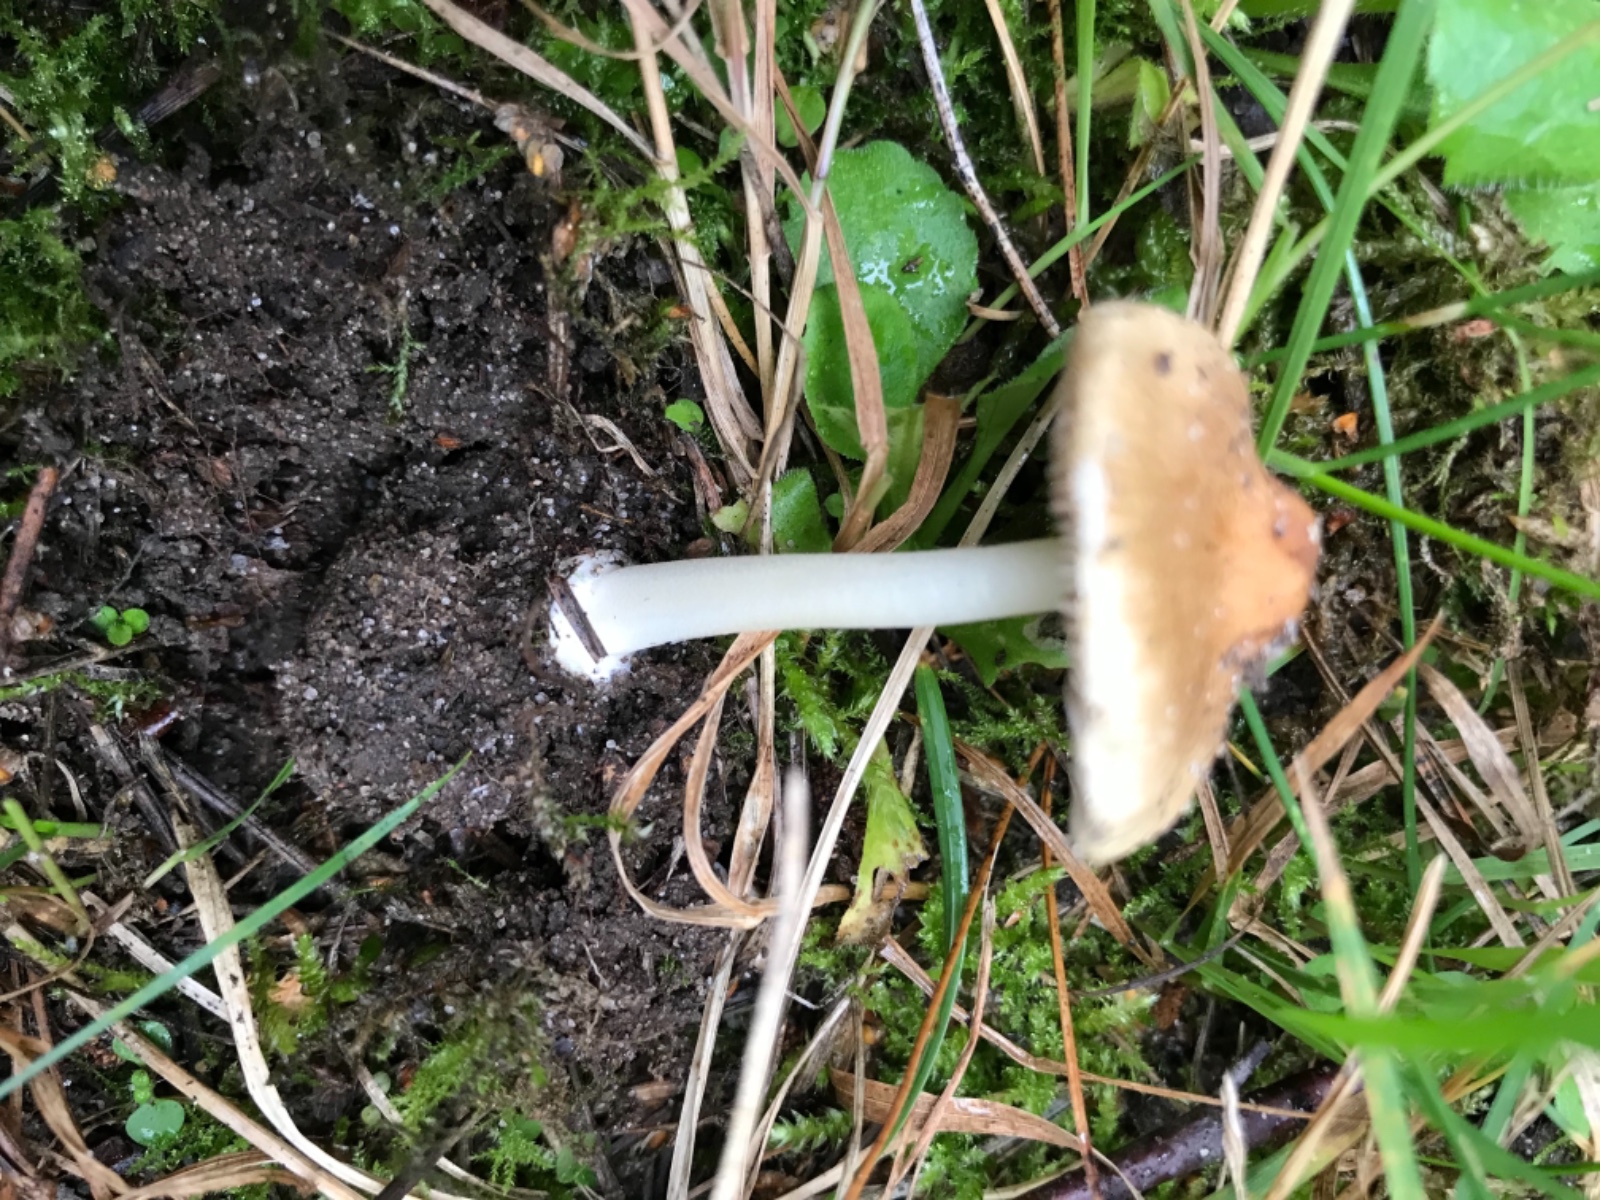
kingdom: Fungi
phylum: Basidiomycota
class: Agaricomycetes
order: Agaricales
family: Inocybaceae
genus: Inocybe
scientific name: Inocybe mixtilis
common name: randknoldet trævlhat
